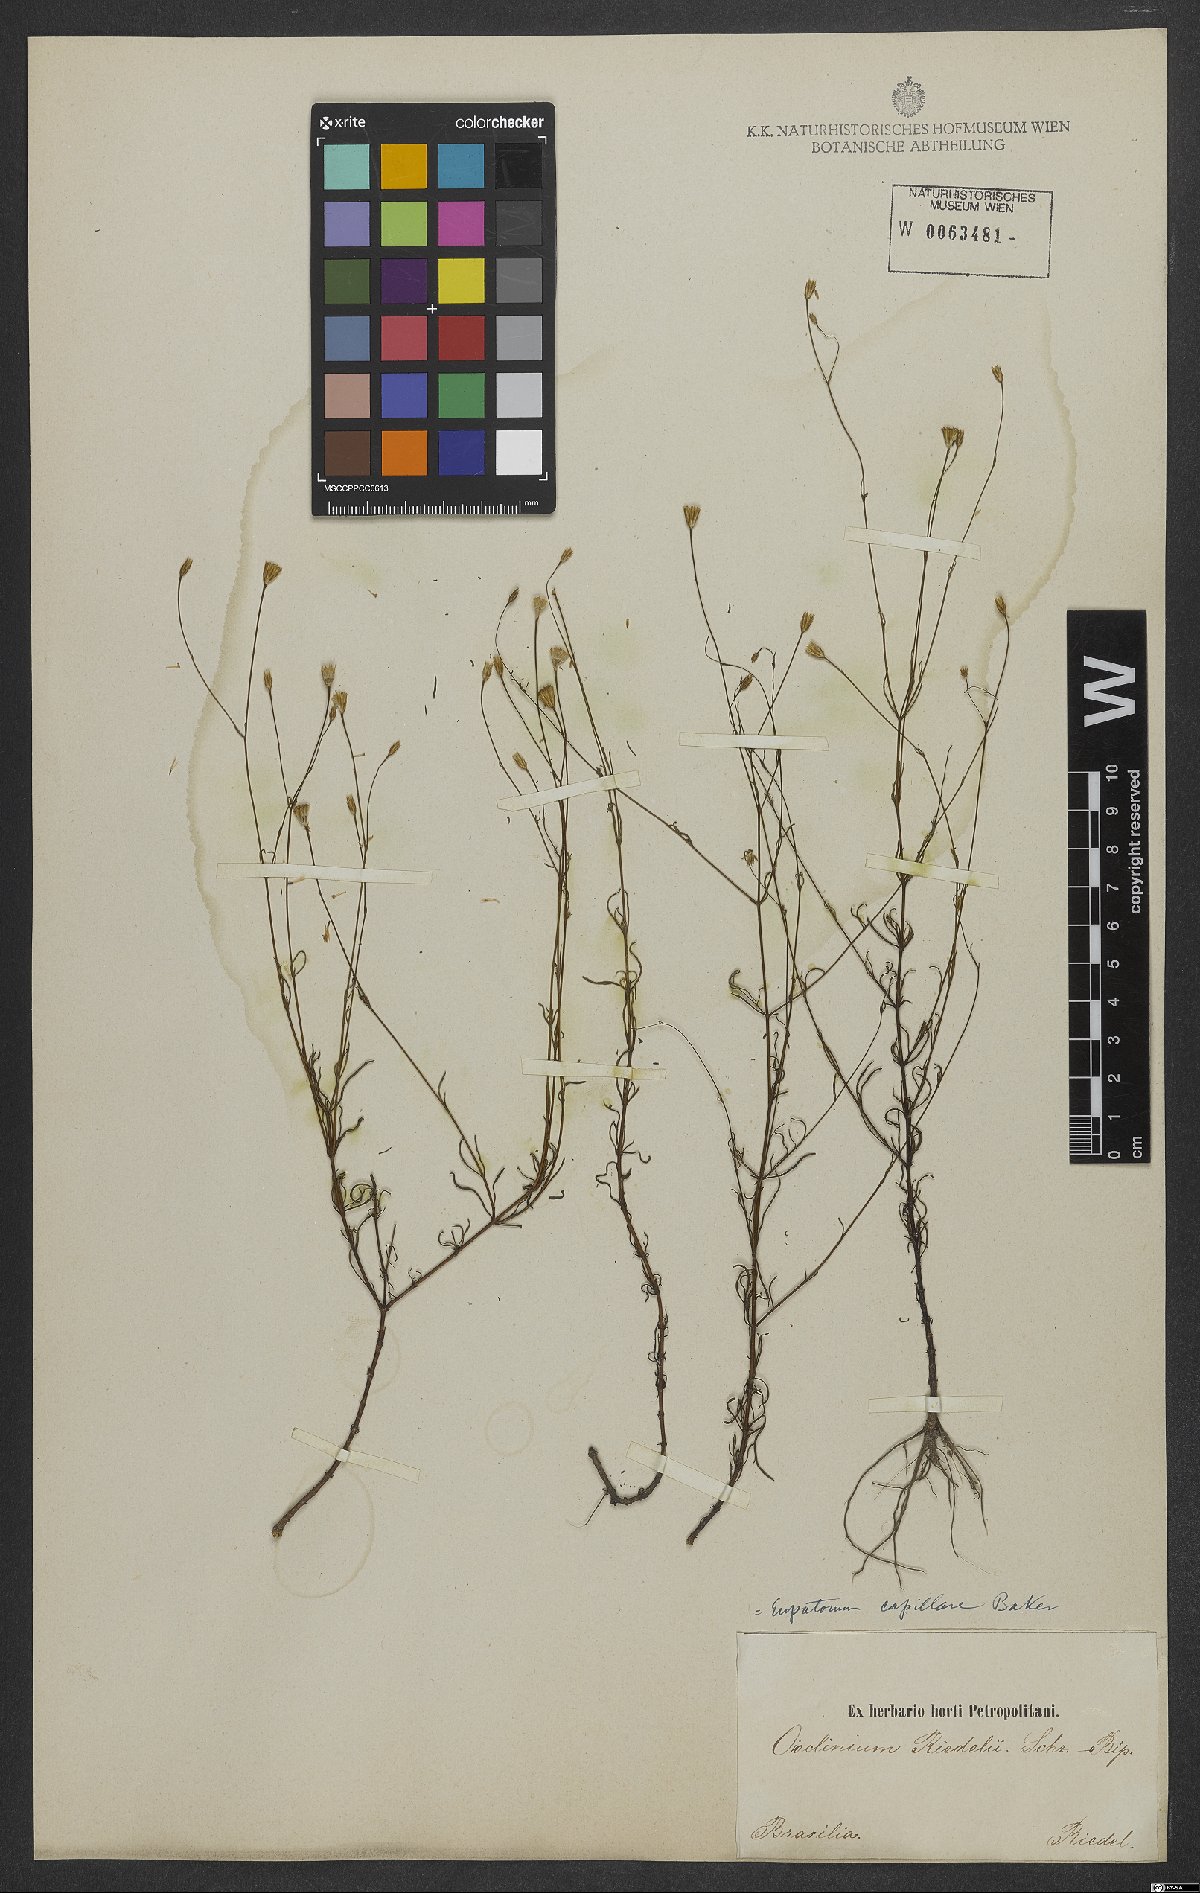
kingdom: Plantae
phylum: Tracheophyta
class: Magnoliopsida
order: Asterales
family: Asteraceae
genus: Praxelis
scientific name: Praxelis capillaris
